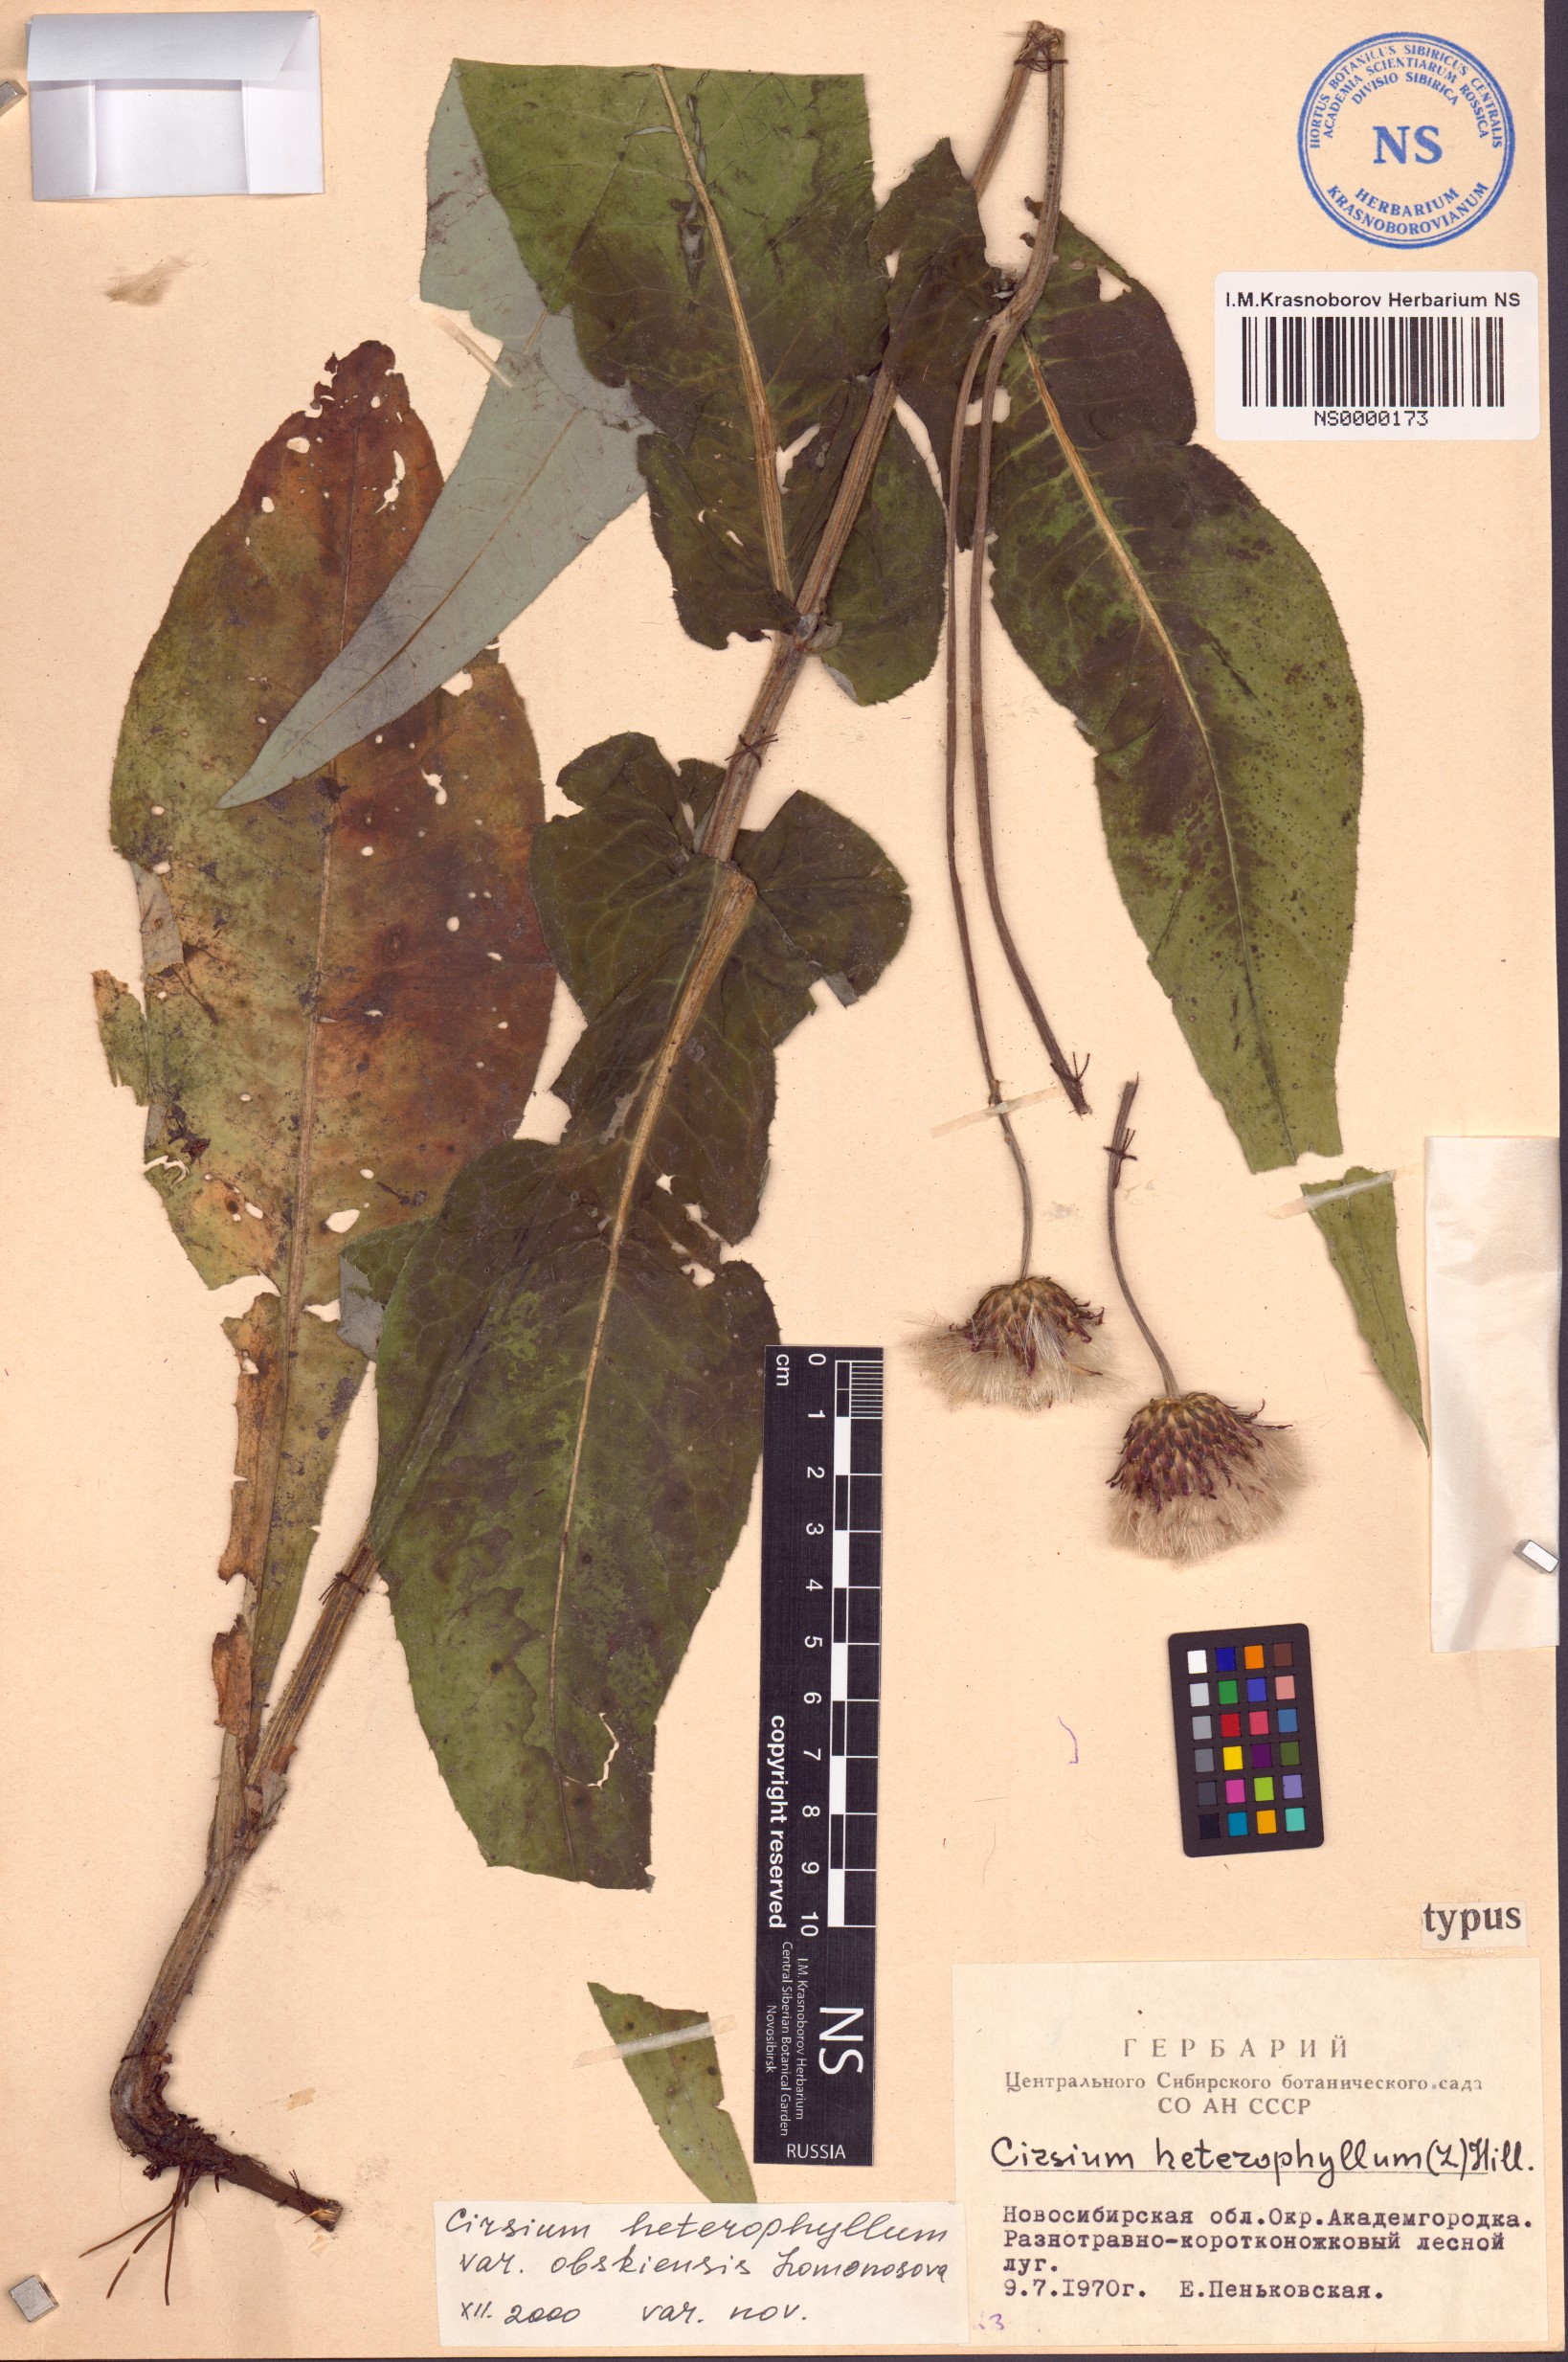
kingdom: Plantae
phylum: Tracheophyta
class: Magnoliopsida
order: Asterales
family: Asteraceae
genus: Cirsium
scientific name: Cirsium heterophyllum
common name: Melancholy thistle
